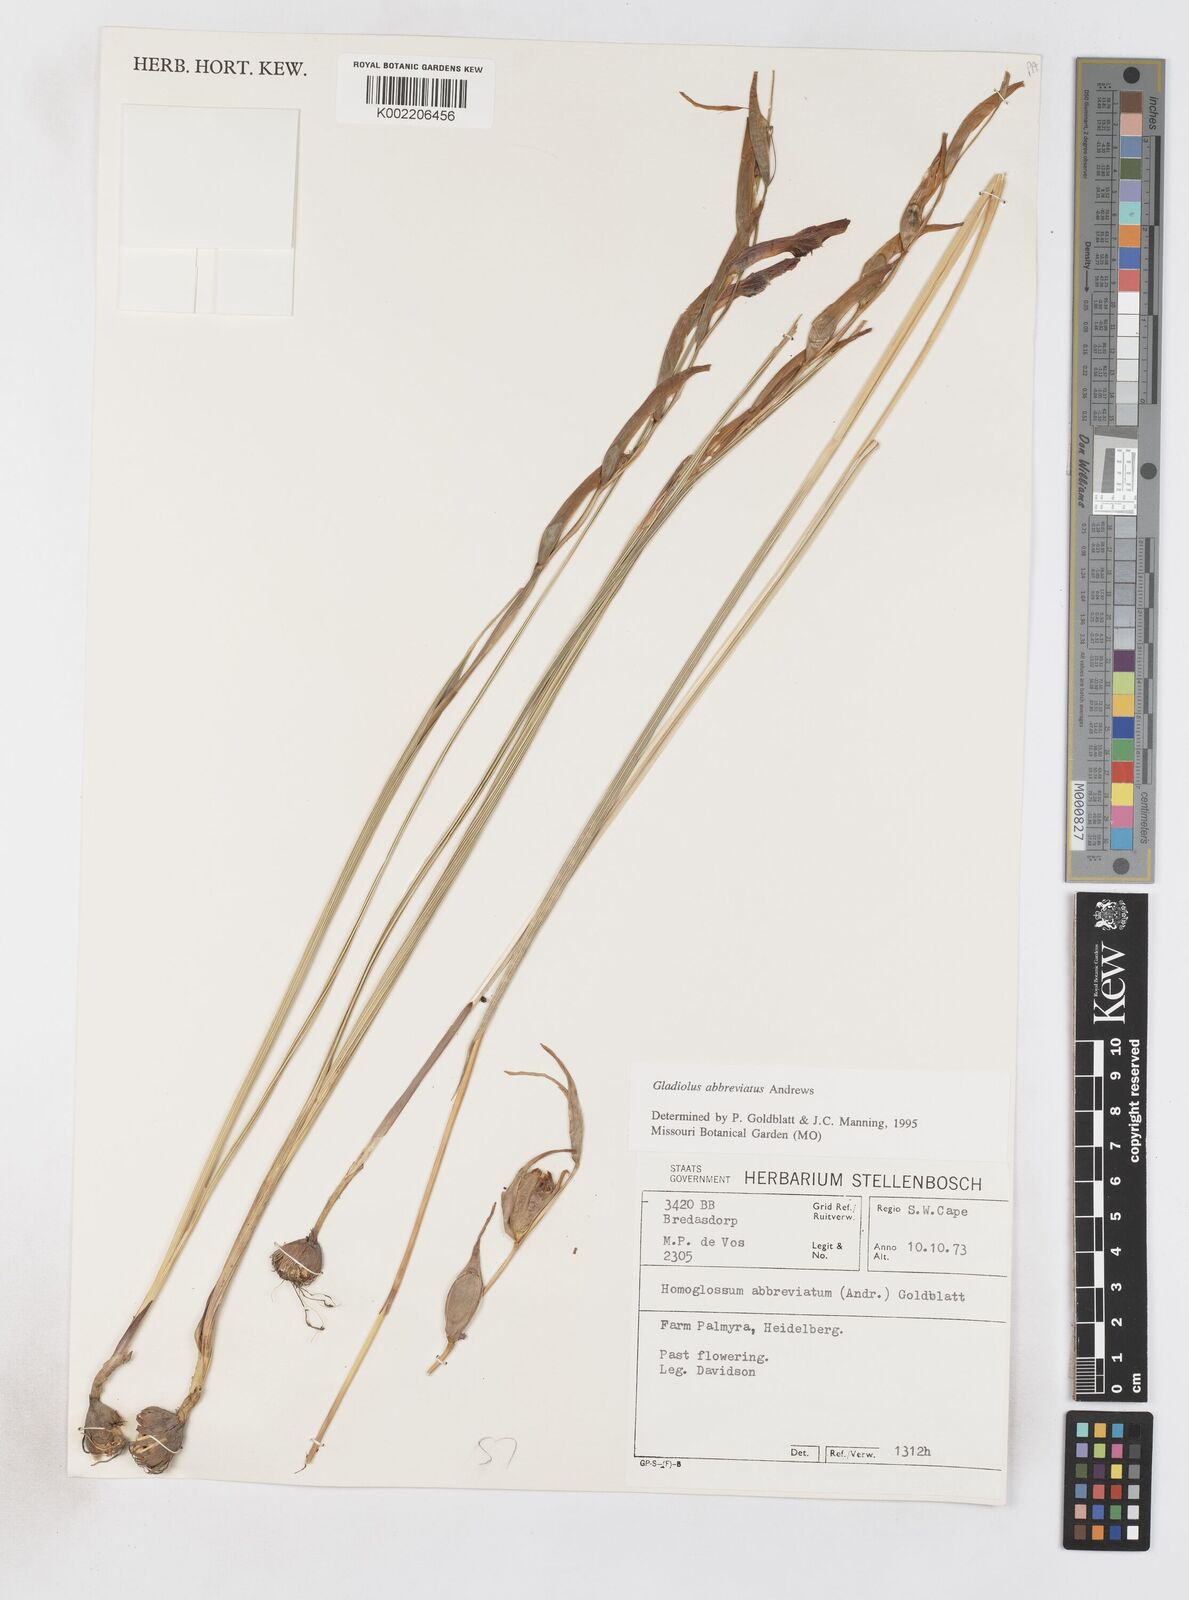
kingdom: Plantae
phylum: Tracheophyta
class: Liliopsida
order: Asparagales
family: Iridaceae
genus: Gladiolus
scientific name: Gladiolus abbreviatus
